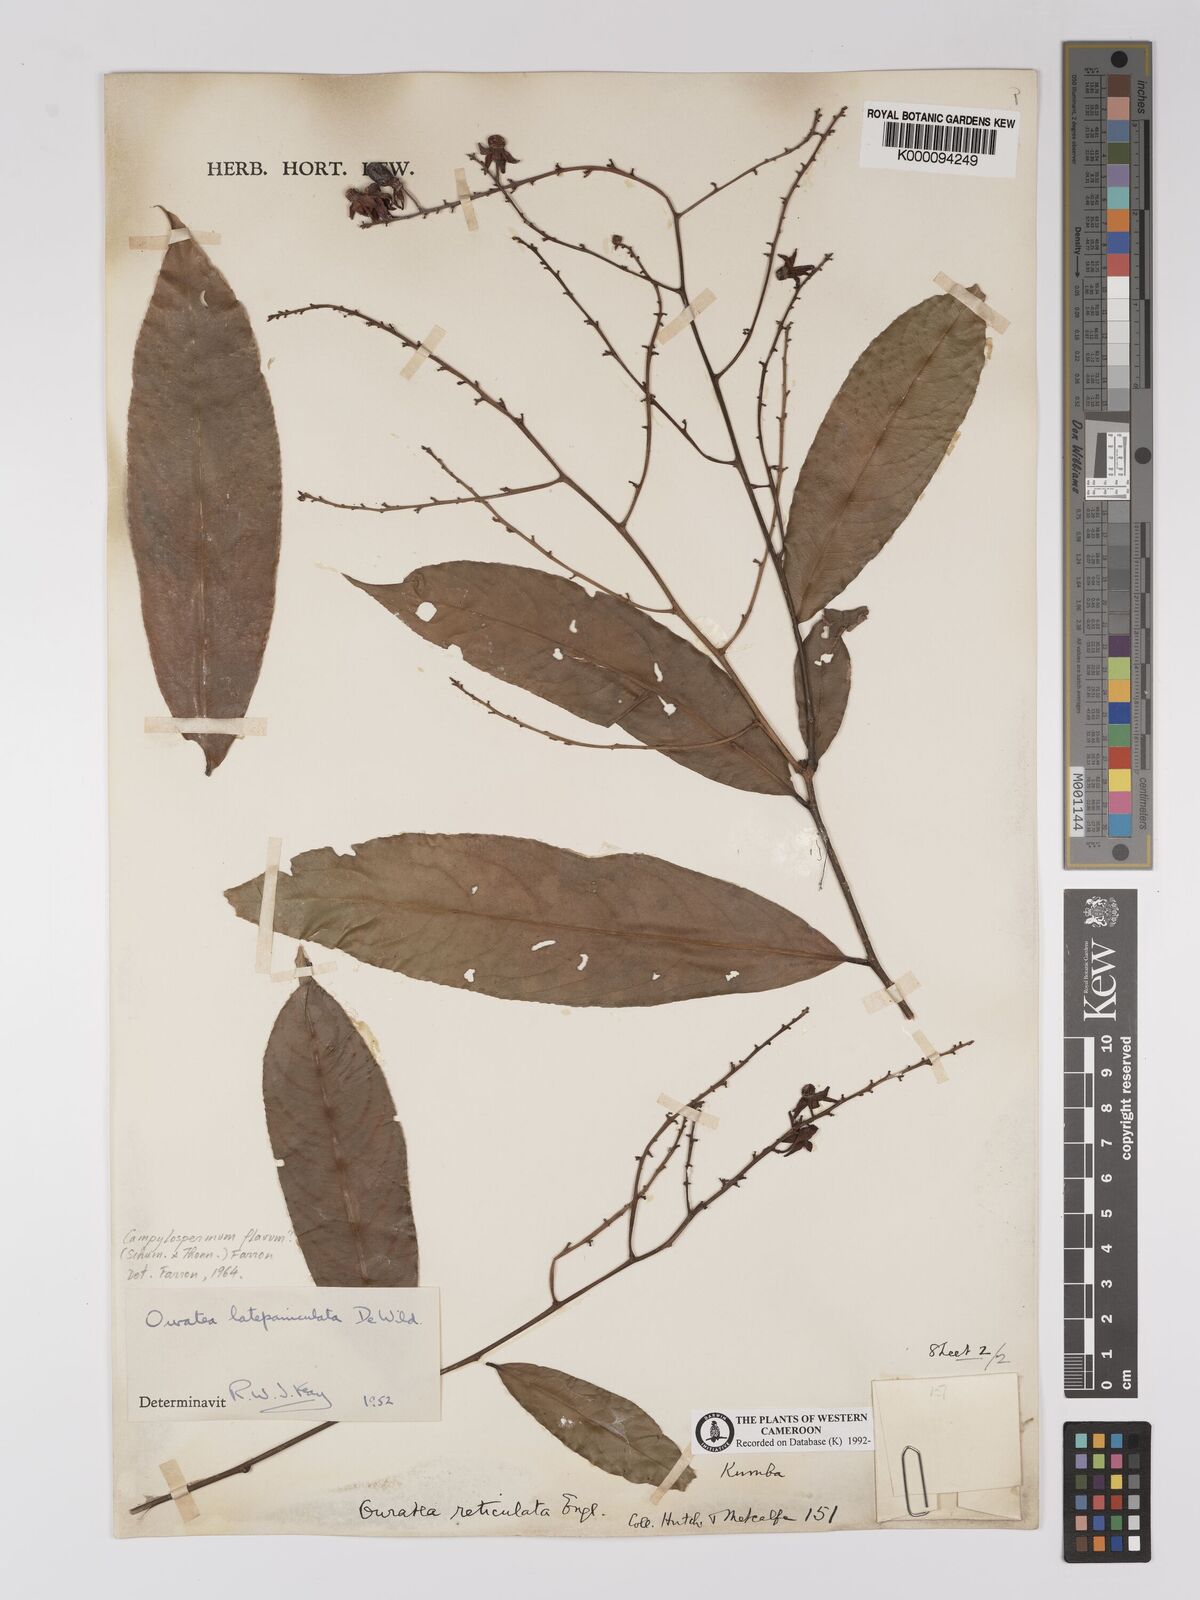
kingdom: Plantae
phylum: Tracheophyta
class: Magnoliopsida
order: Malpighiales
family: Ochnaceae
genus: Campylospermum
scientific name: Campylospermum flavum
